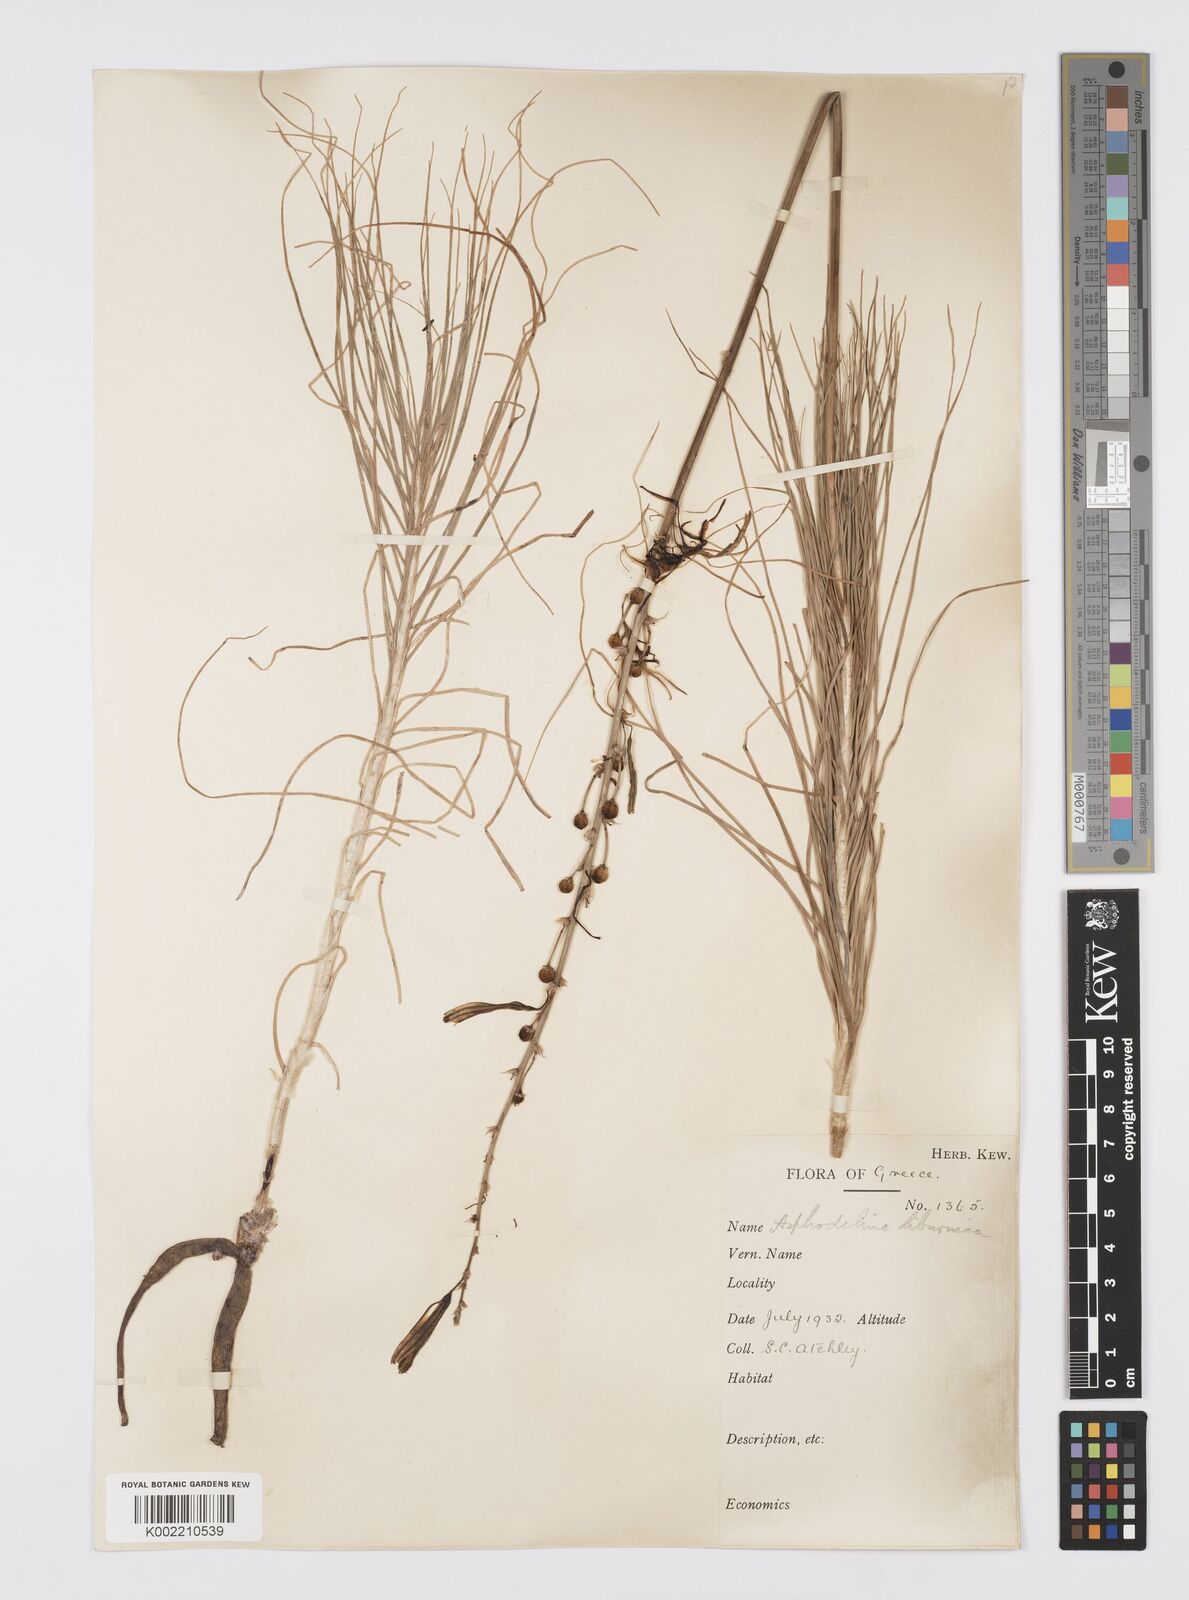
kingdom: Plantae
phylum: Tracheophyta
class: Liliopsida
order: Asparagales
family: Asphodelaceae
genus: Asphodeline
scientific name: Asphodeline liburnica
